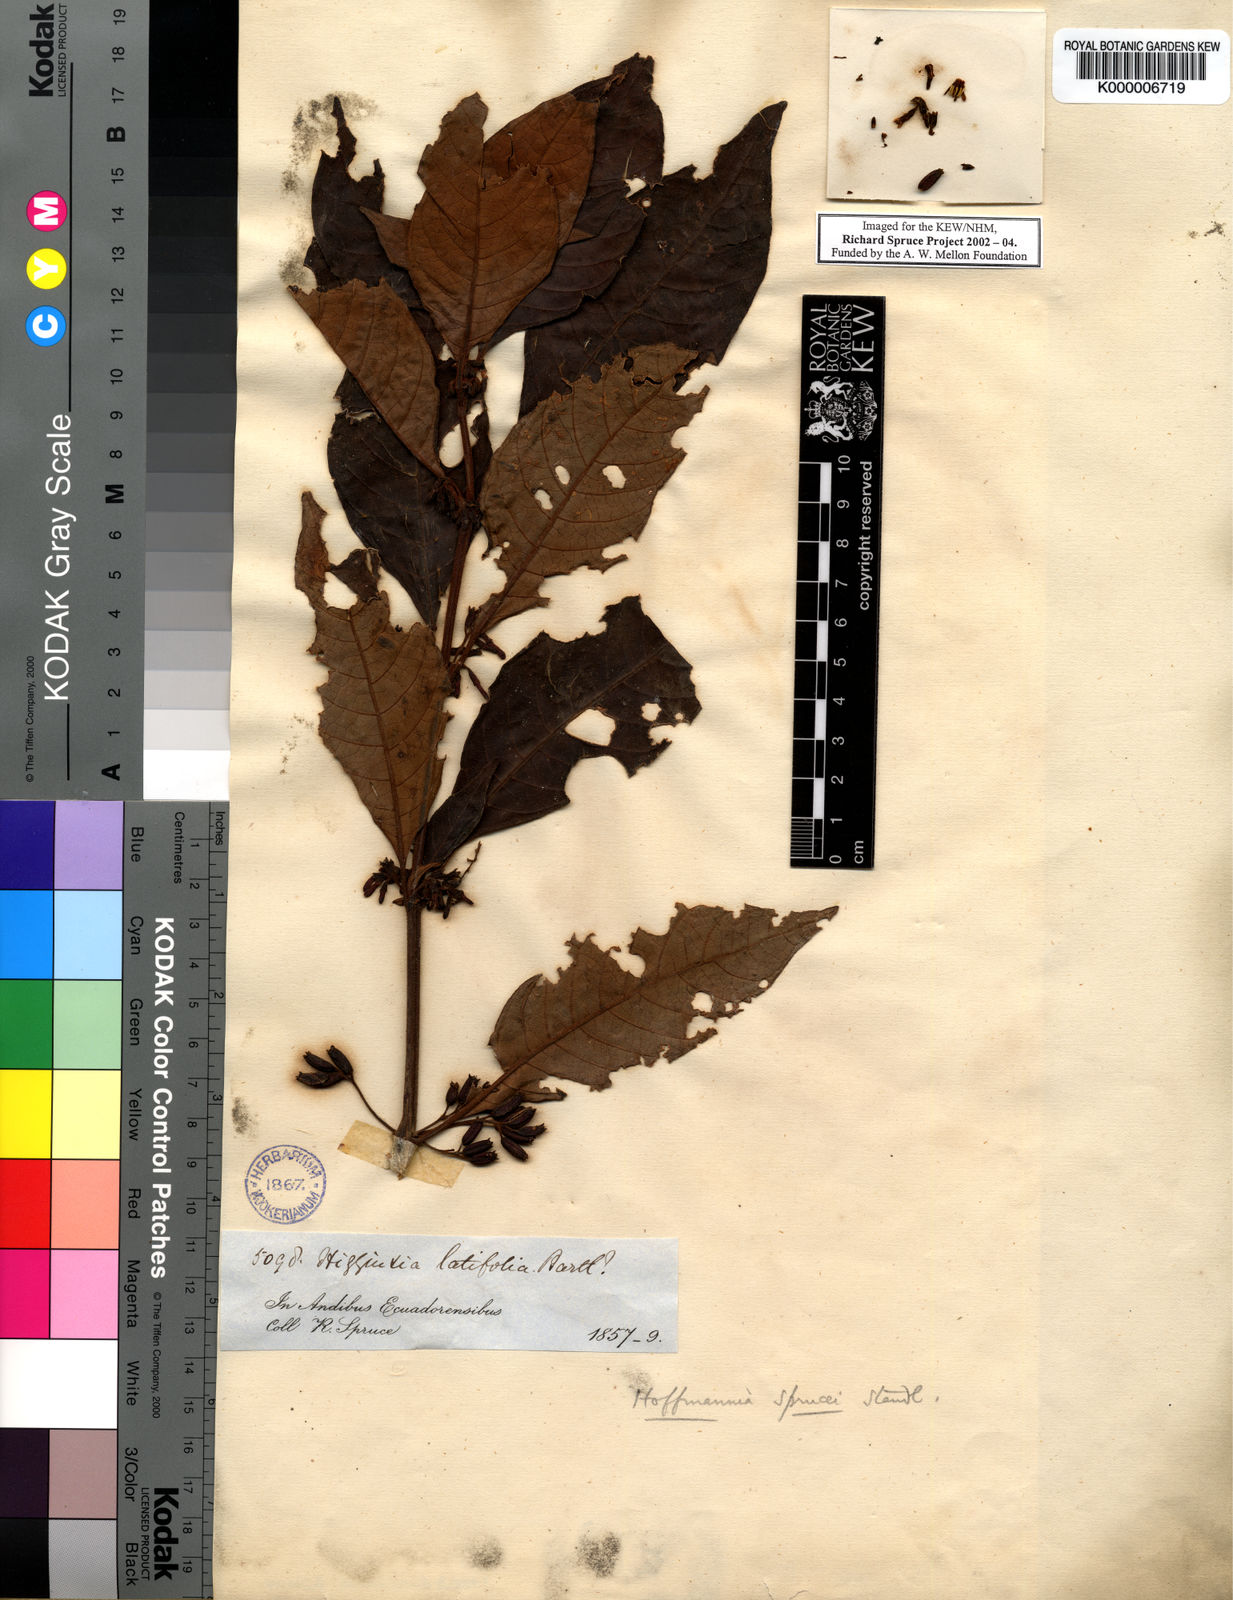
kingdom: Plantae
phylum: Tracheophyta
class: Magnoliopsida
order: Gentianales
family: Rubiaceae
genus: Hoffmannia
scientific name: Hoffmannia sprucei
